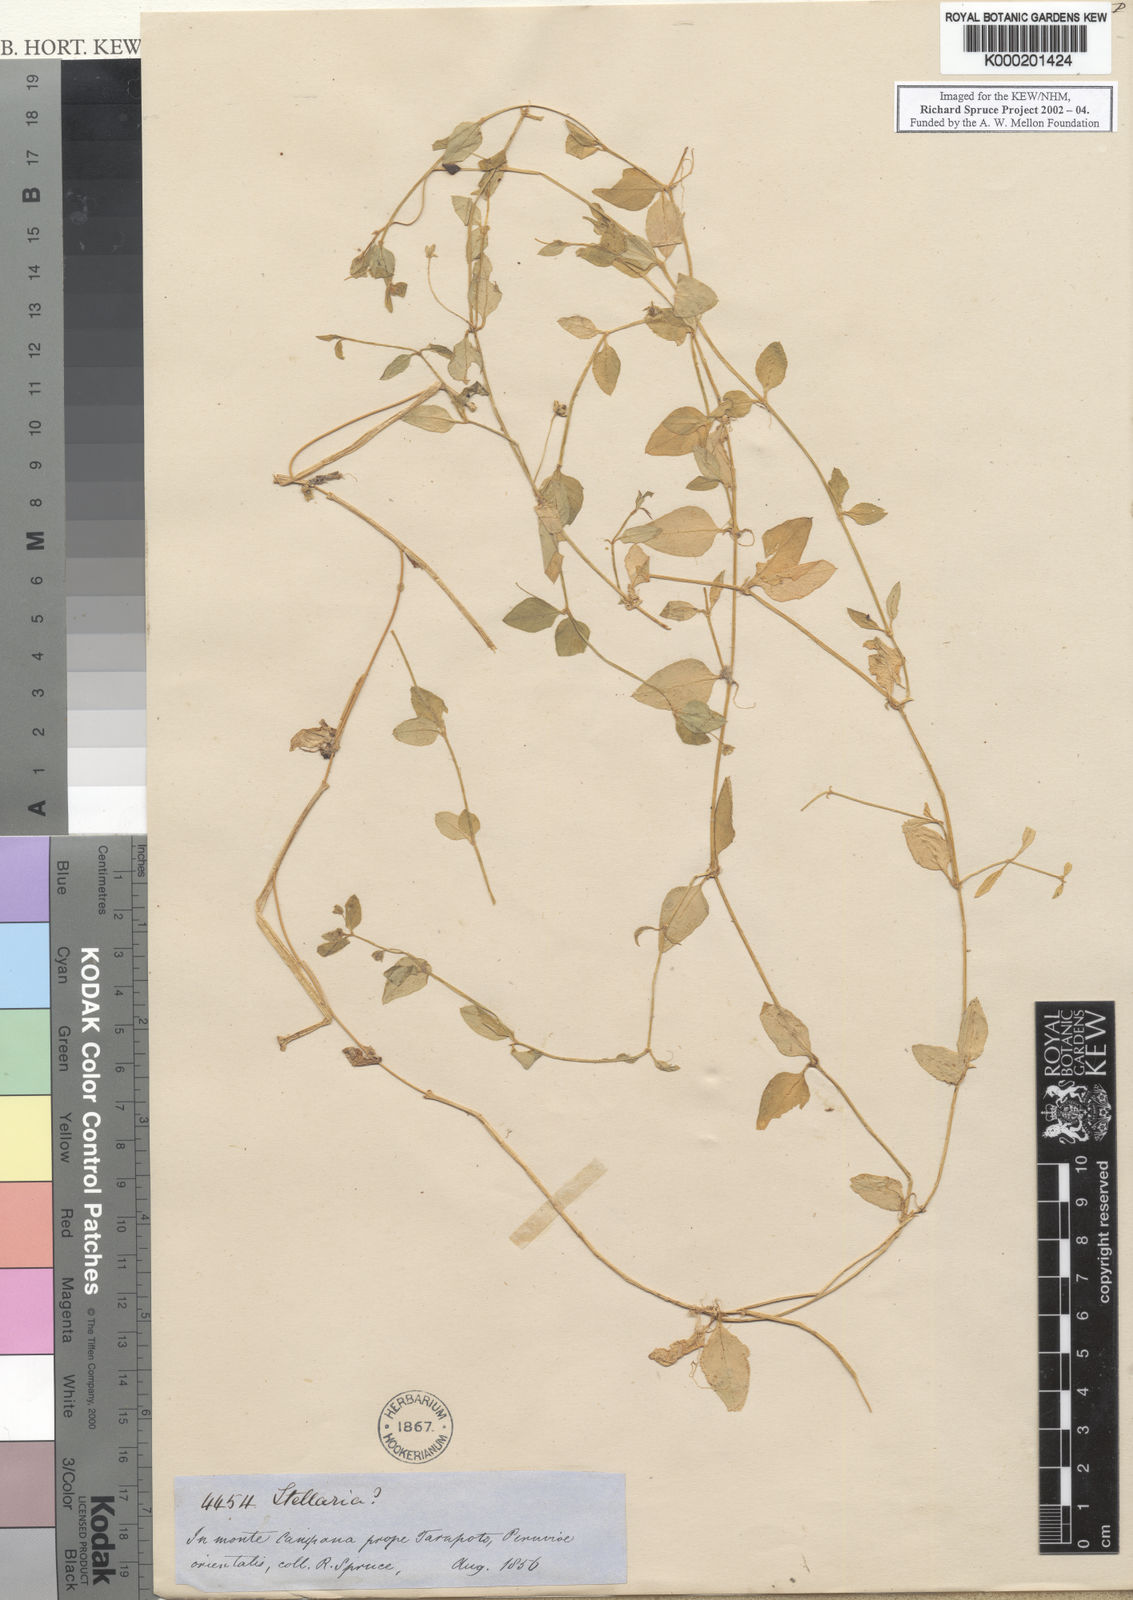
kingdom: Plantae
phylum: Tracheophyta
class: Magnoliopsida
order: Caryophyllales
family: Caryophyllaceae
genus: Stellaria
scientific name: Stellaria ovata
